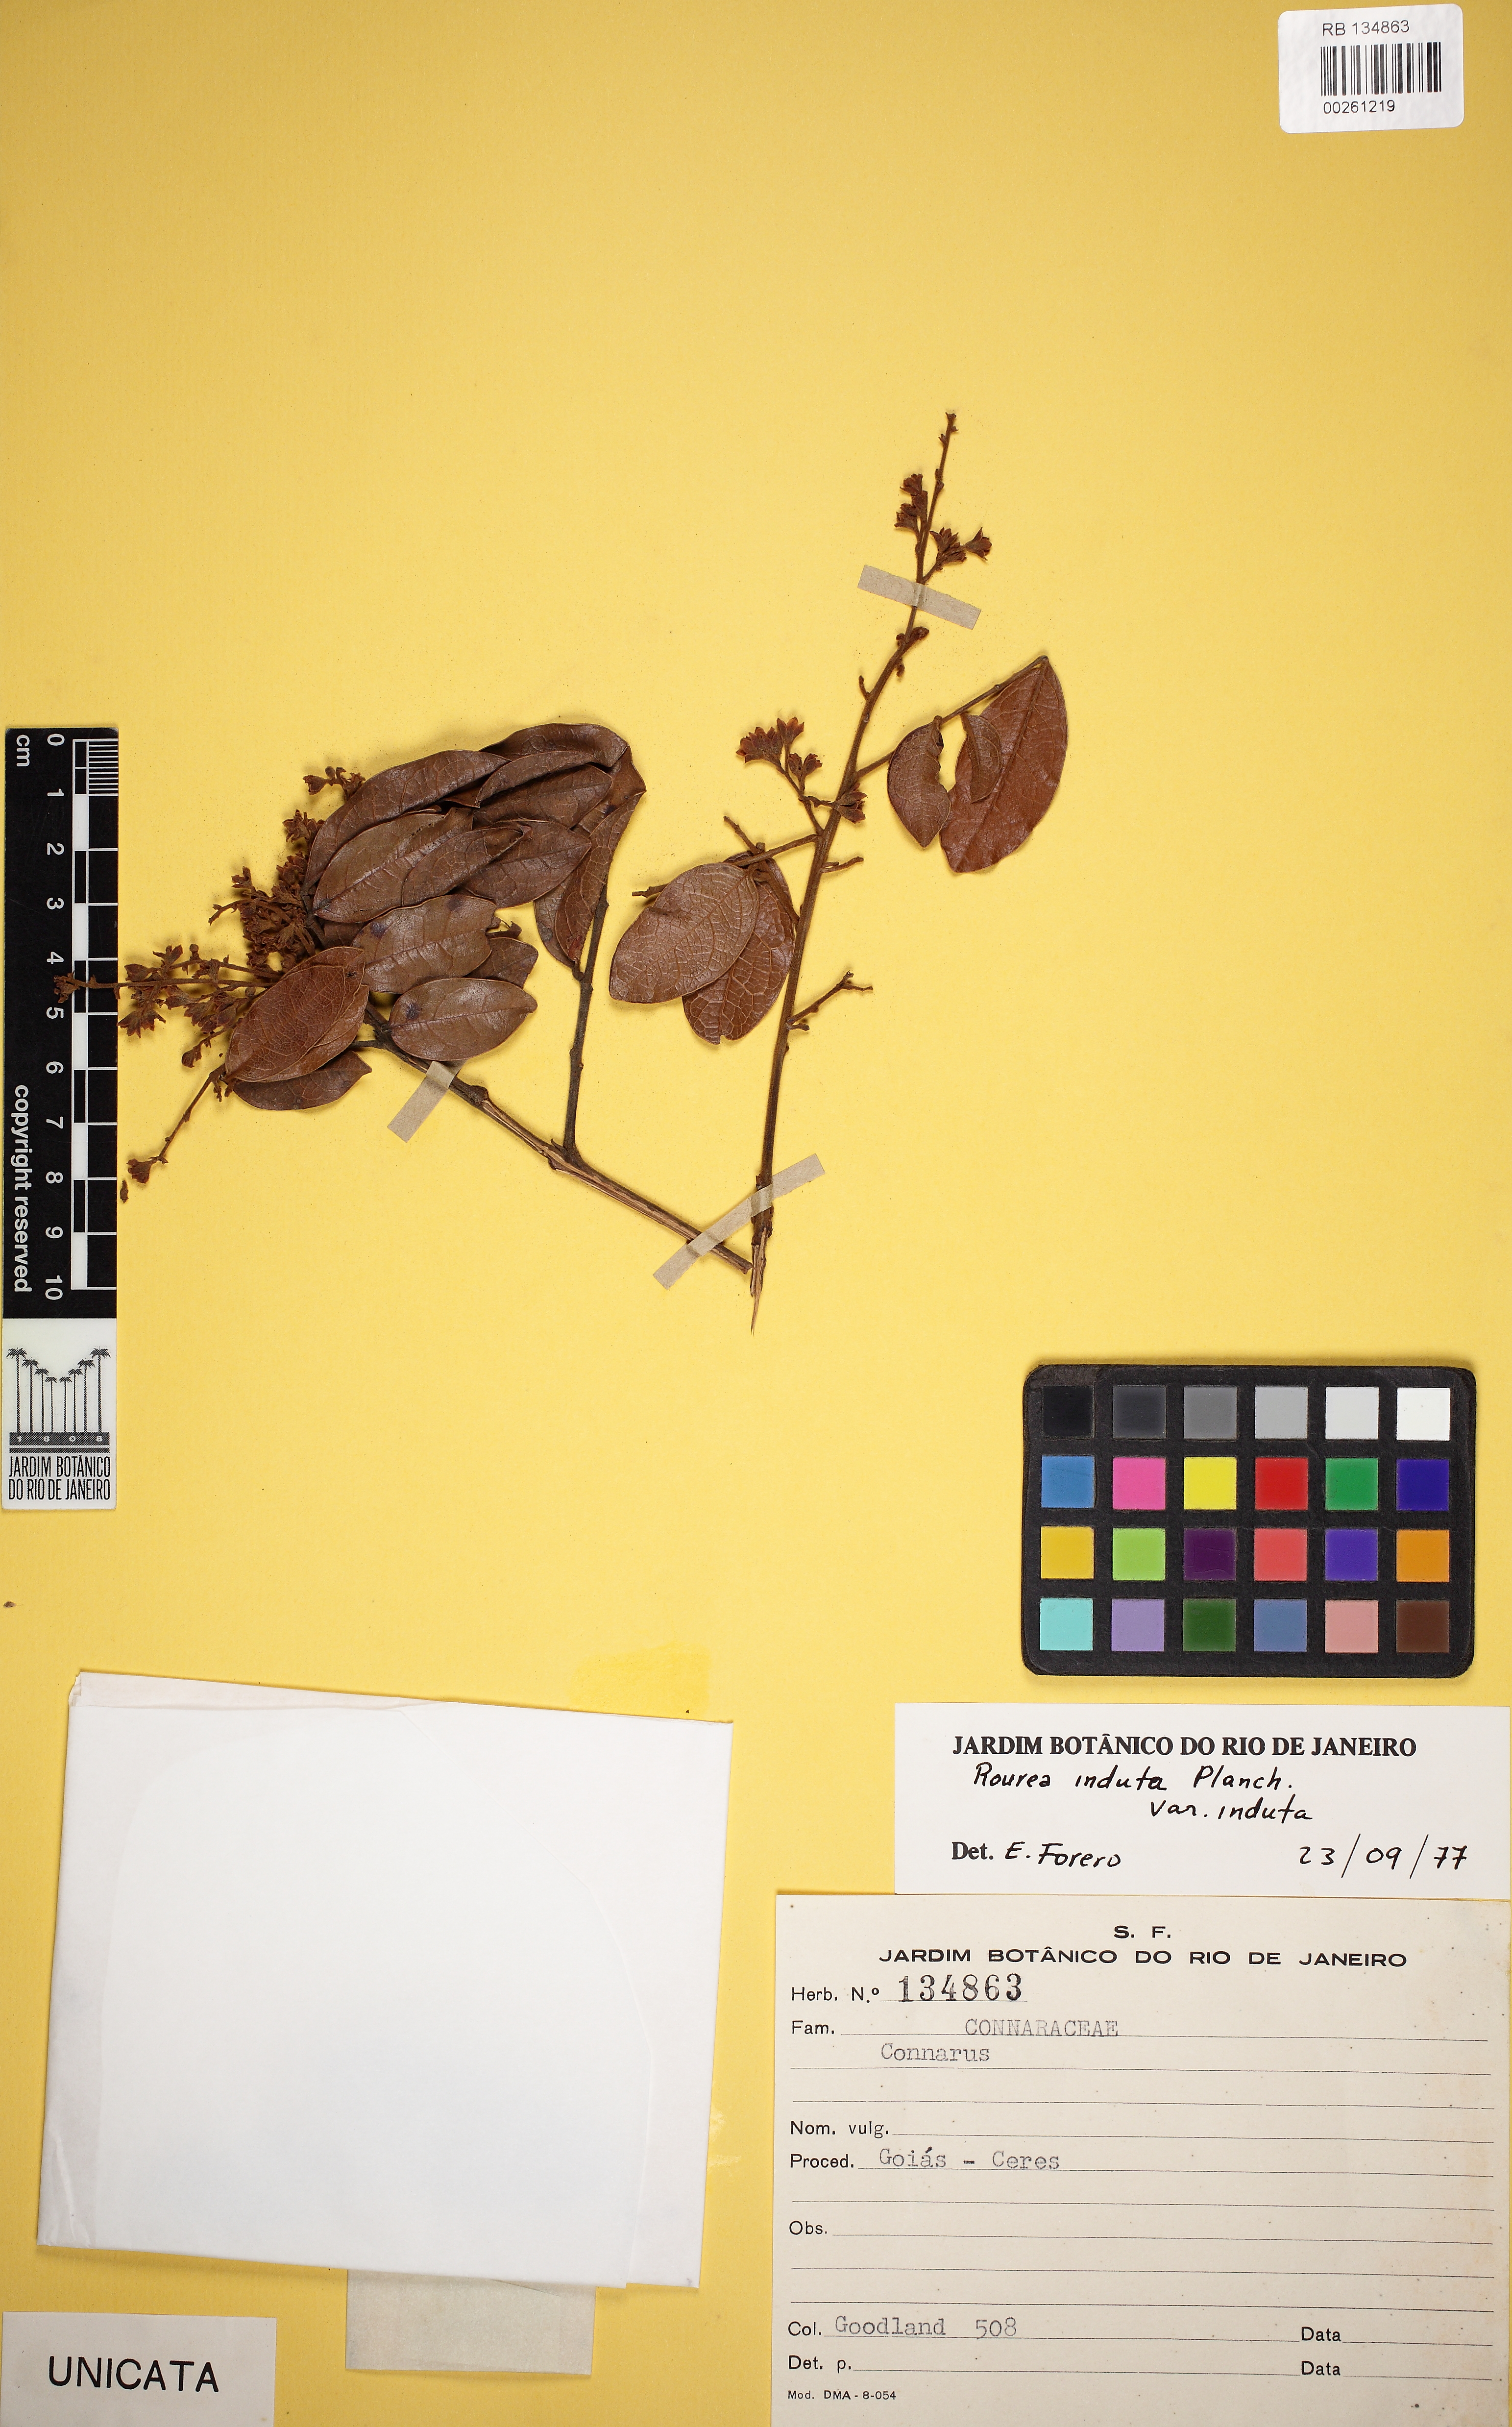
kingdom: Plantae
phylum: Tracheophyta
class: Magnoliopsida
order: Oxalidales
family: Connaraceae
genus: Rourea
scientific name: Rourea induta
